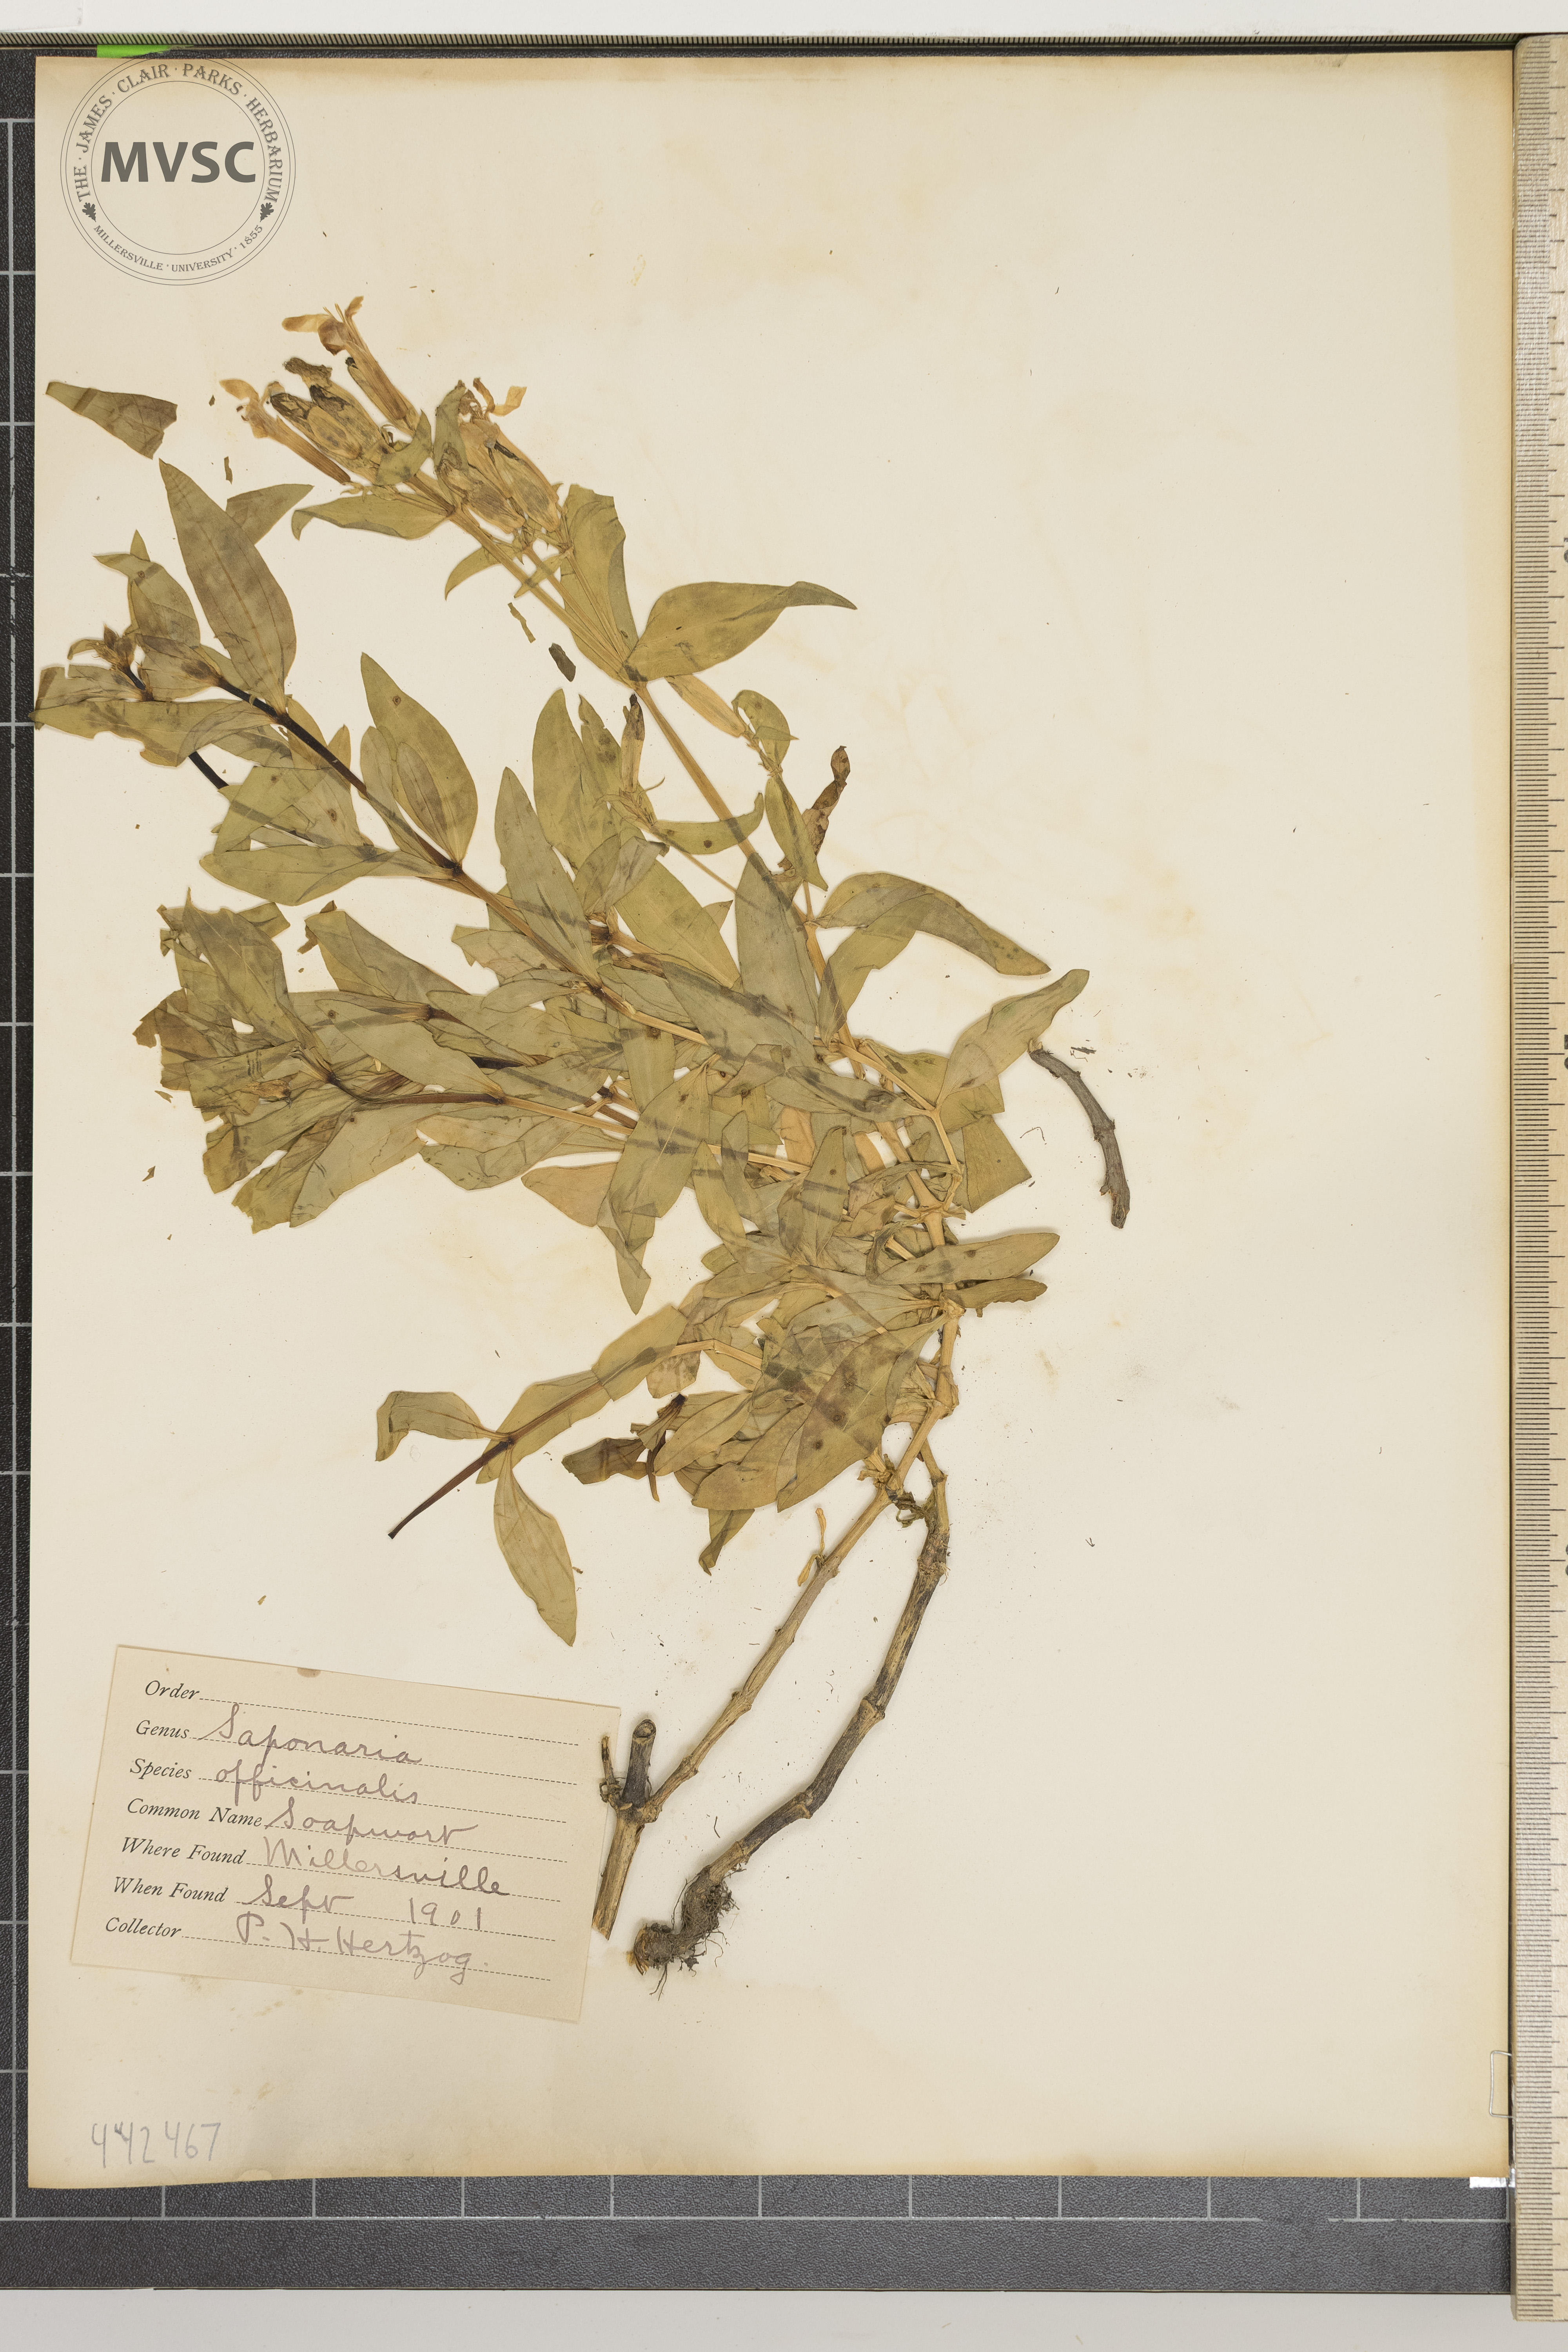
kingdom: Plantae
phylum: Tracheophyta
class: Magnoliopsida
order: Caryophyllales
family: Caryophyllaceae
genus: Saponaria
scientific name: Saponaria officinalis
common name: Soapwort
